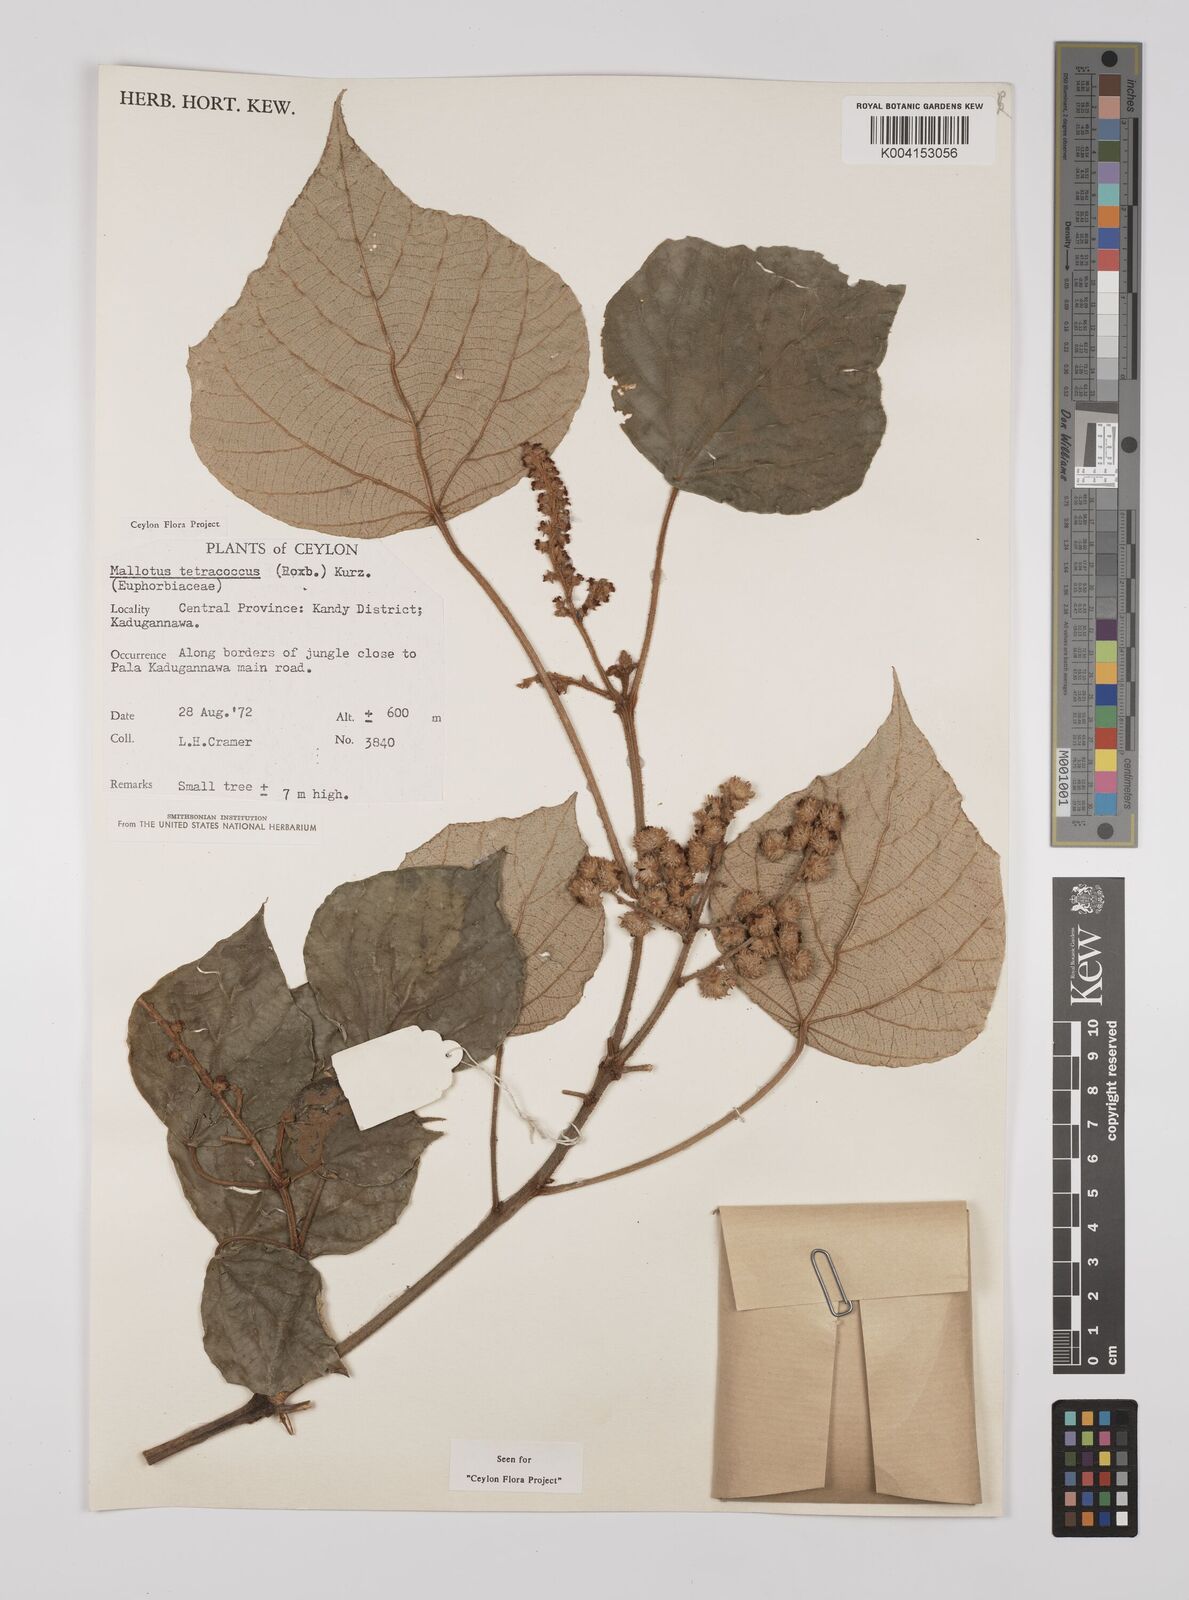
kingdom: Plantae
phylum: Tracheophyta
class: Magnoliopsida
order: Malpighiales
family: Euphorbiaceae
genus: Mallotus
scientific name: Mallotus tetracoccus
